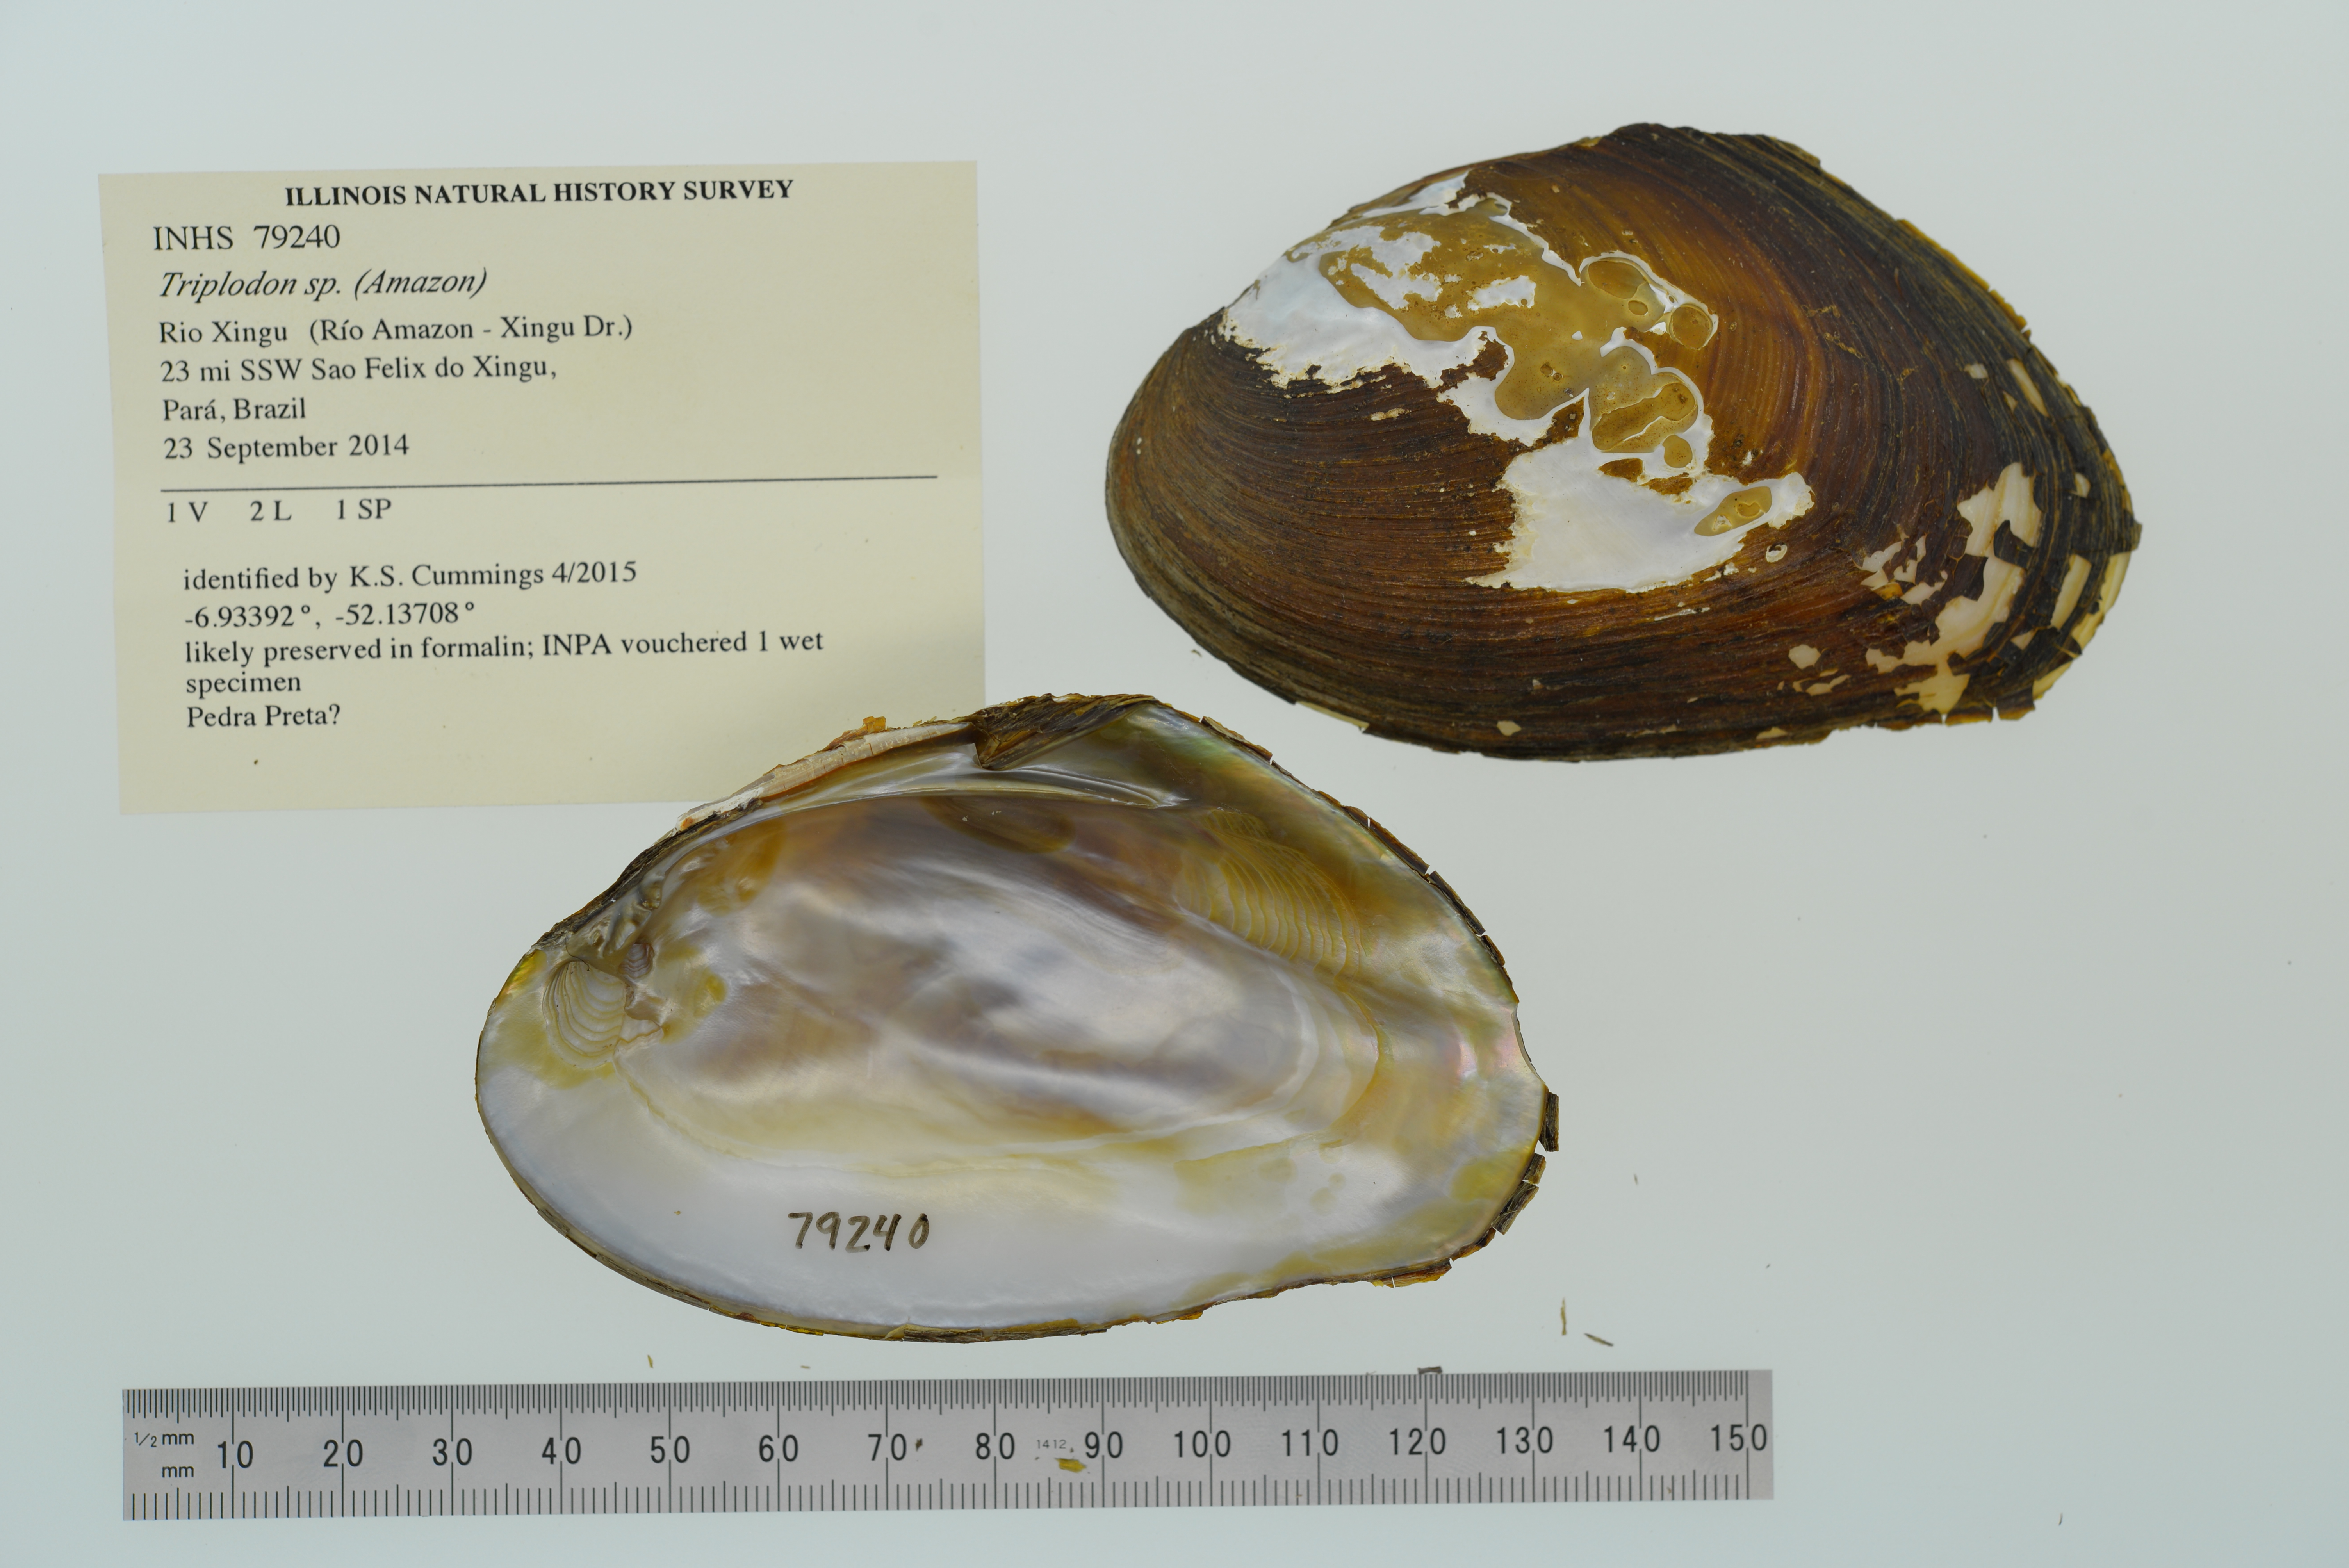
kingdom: Animalia
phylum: Mollusca
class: Bivalvia
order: Unionida
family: Hyriidae
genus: Diplodon
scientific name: Diplodon
